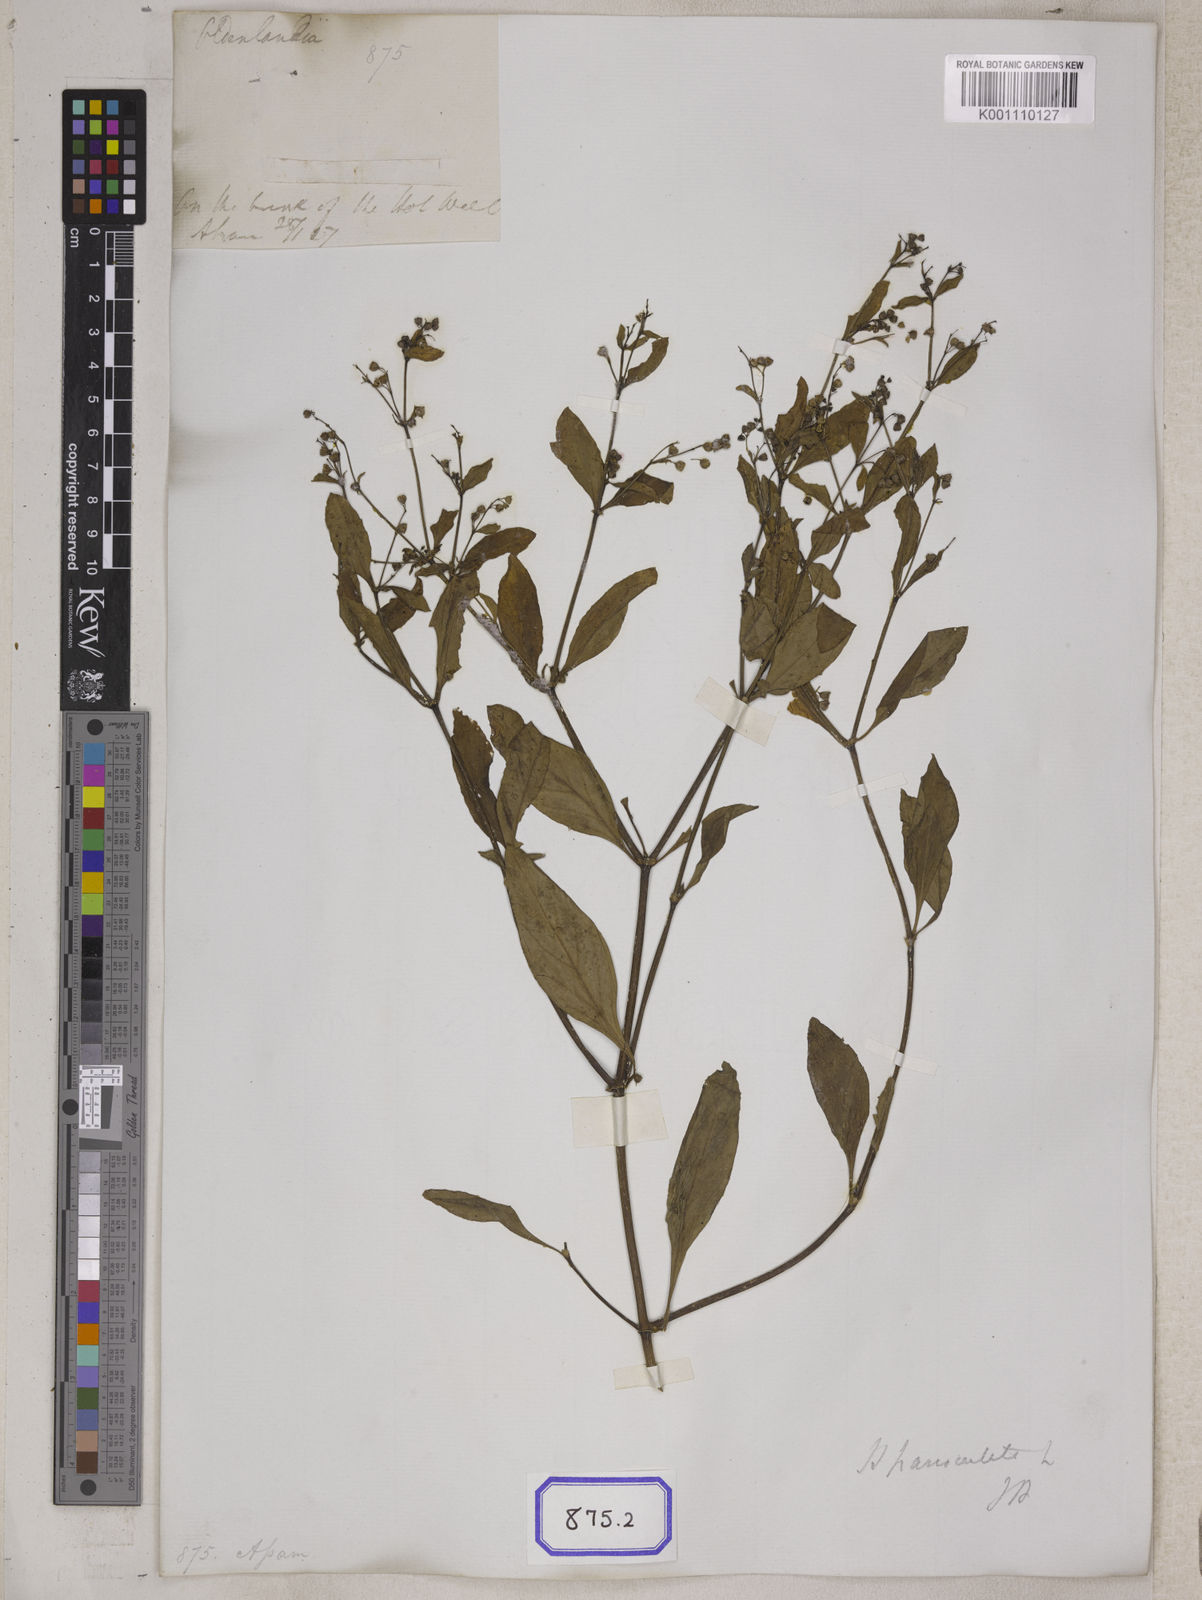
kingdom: Plantae
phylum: Tracheophyta
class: Magnoliopsida
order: Gentianales
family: Rubiaceae
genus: Leptopetalum
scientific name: Leptopetalum racemosum
